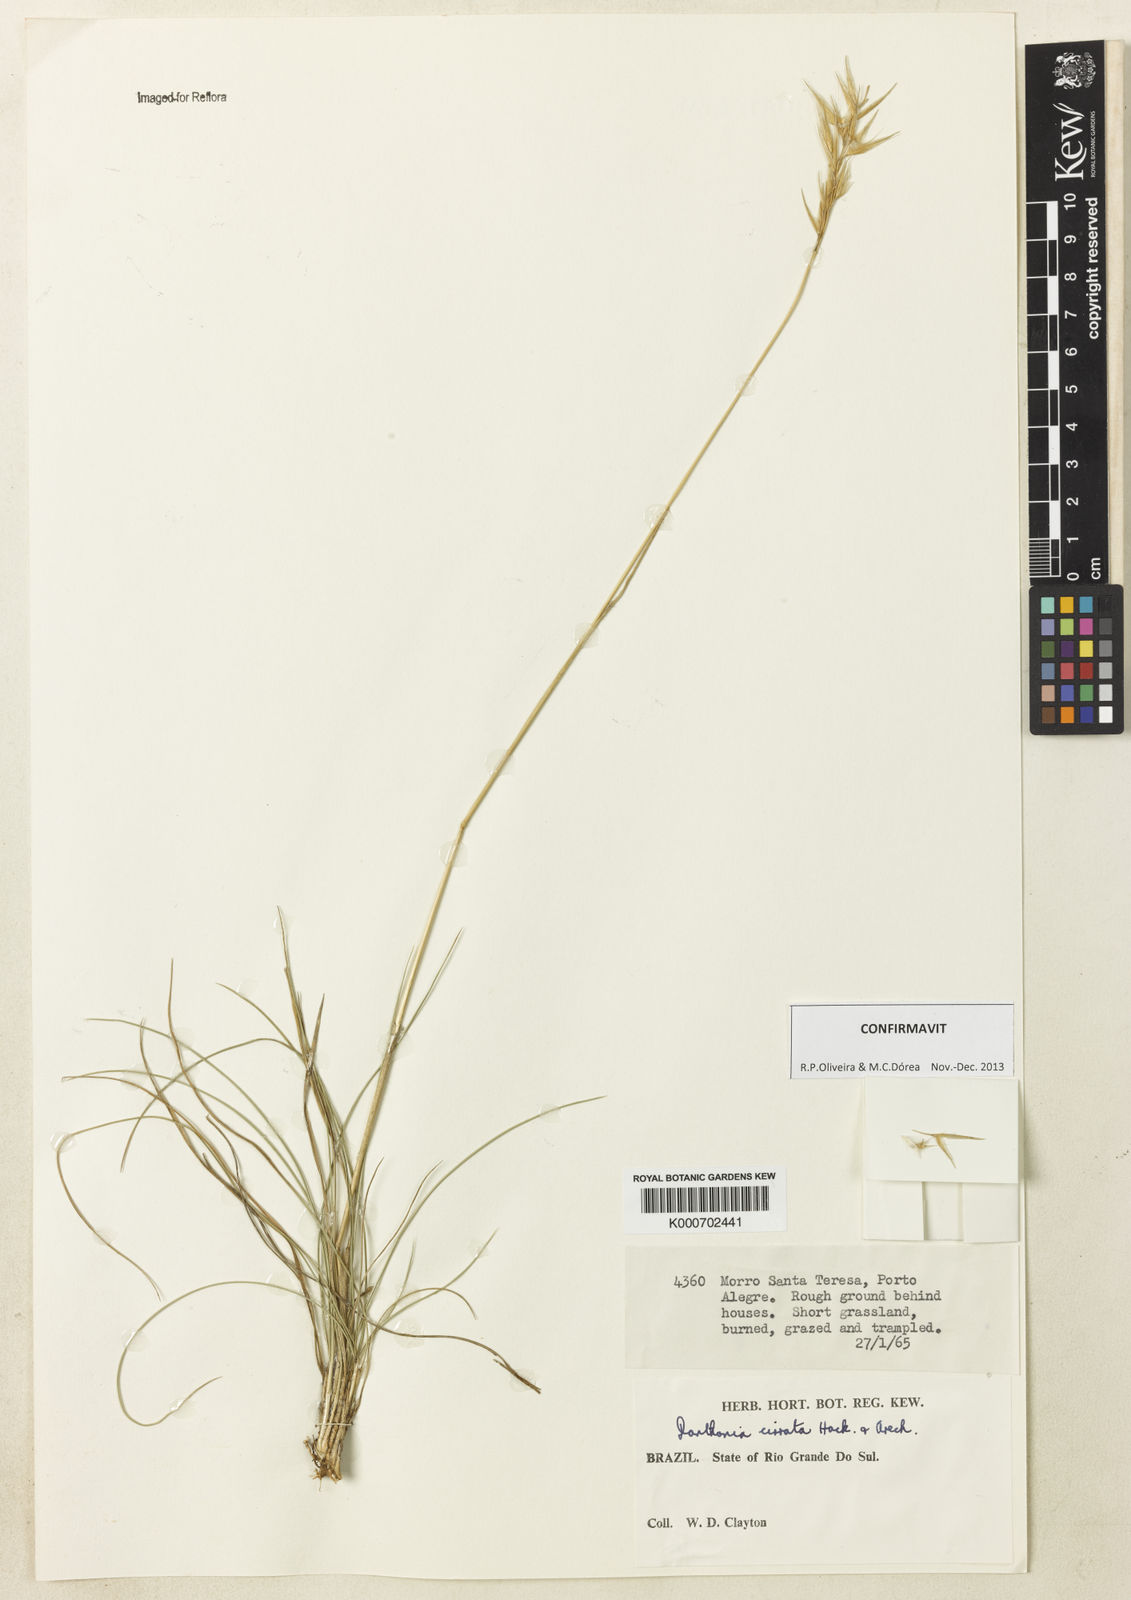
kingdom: Plantae
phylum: Tracheophyta
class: Liliopsida
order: Poales
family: Poaceae
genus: Danthonia
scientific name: Danthonia cirrata
